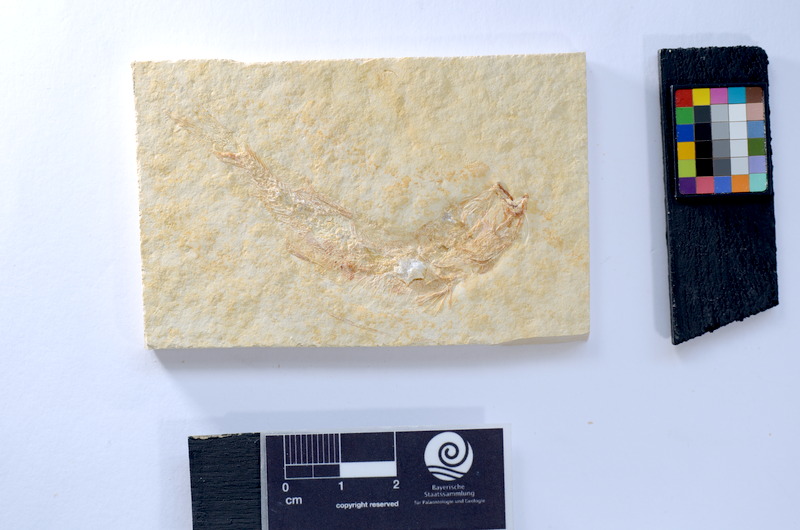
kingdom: Animalia
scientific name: Animalia
